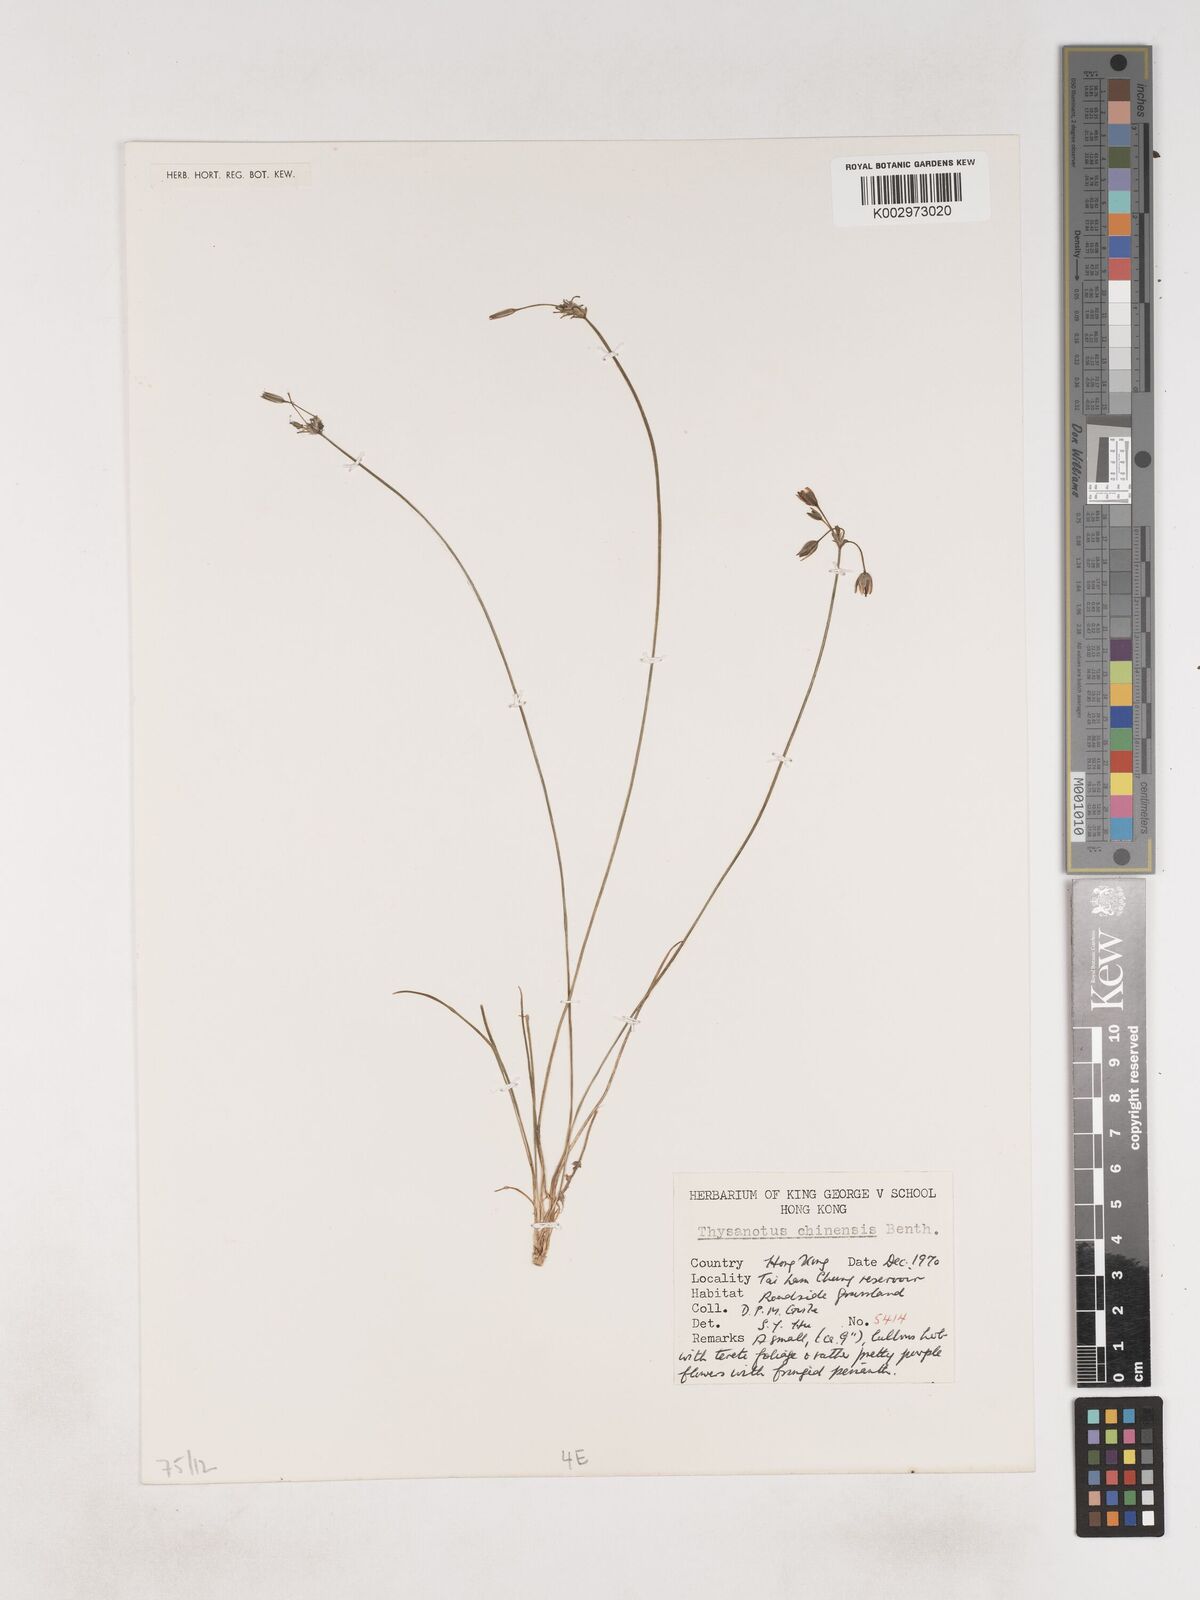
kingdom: Plantae
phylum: Tracheophyta
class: Liliopsida
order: Asparagales
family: Asparagaceae
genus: Thysanotus
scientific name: Thysanotus chinensis
